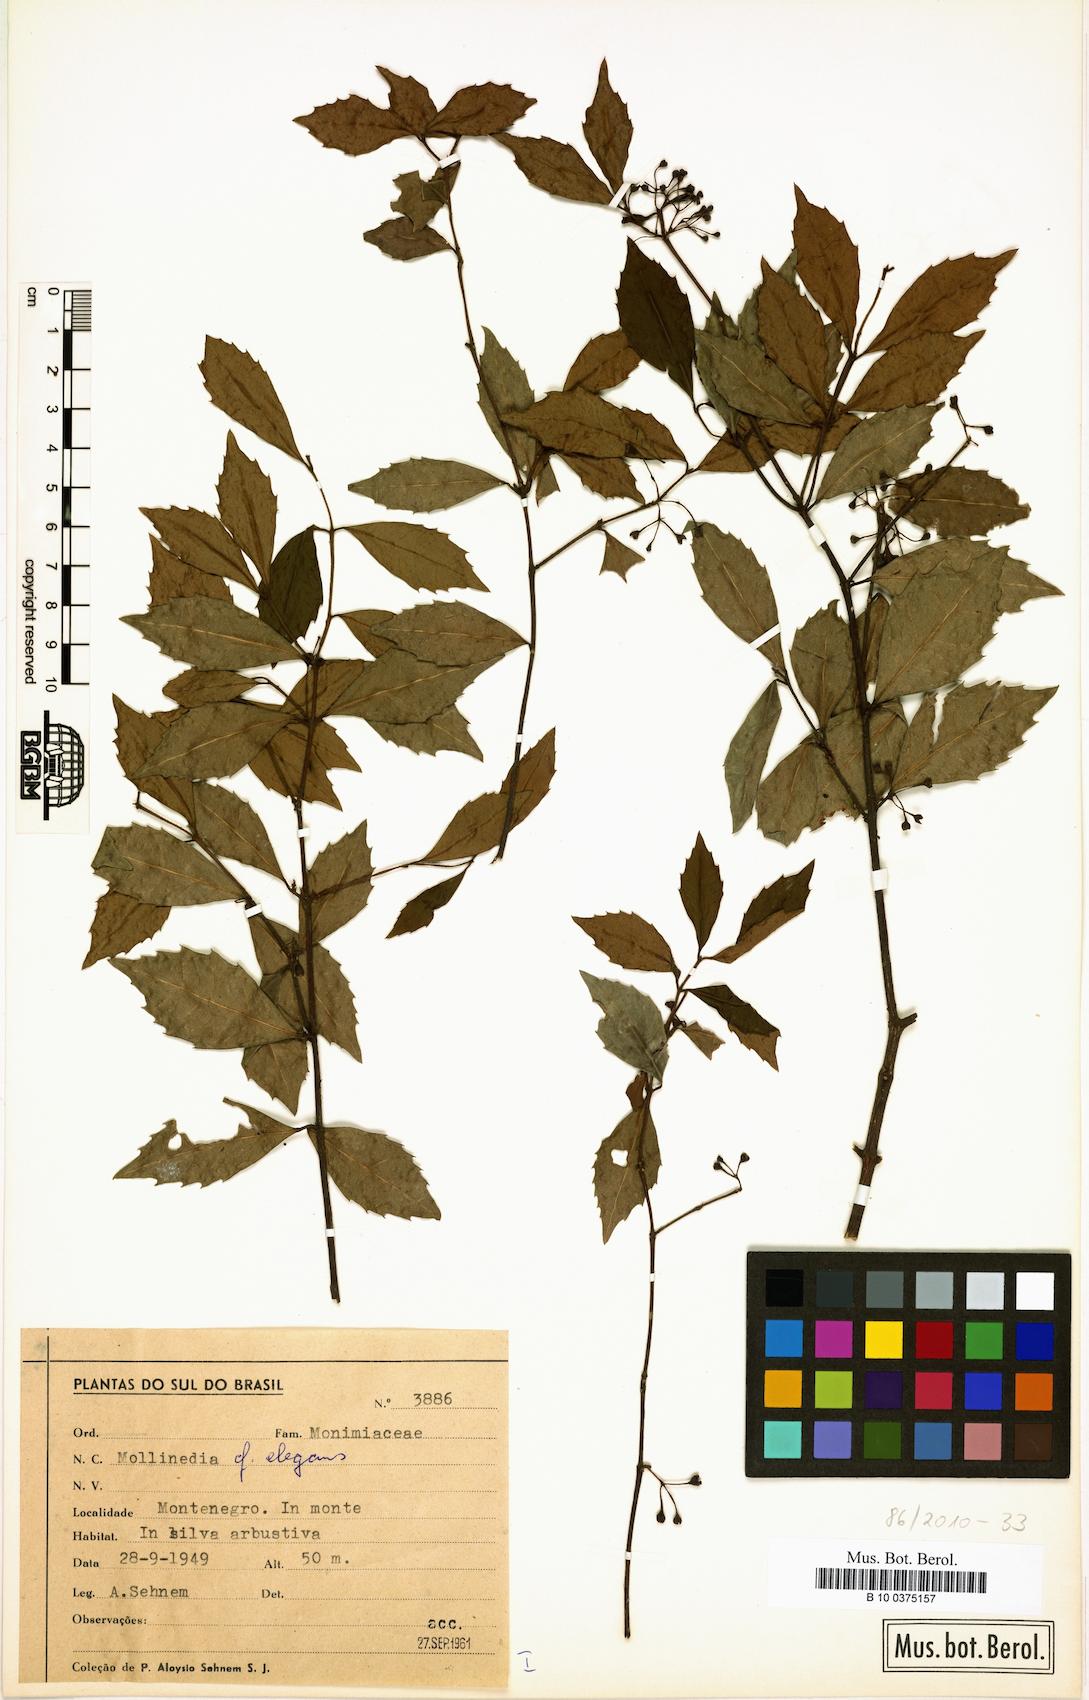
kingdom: Plantae
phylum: Tracheophyta
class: Magnoliopsida
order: Laurales
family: Monimiaceae
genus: Mollinedia
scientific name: Mollinedia elegans
